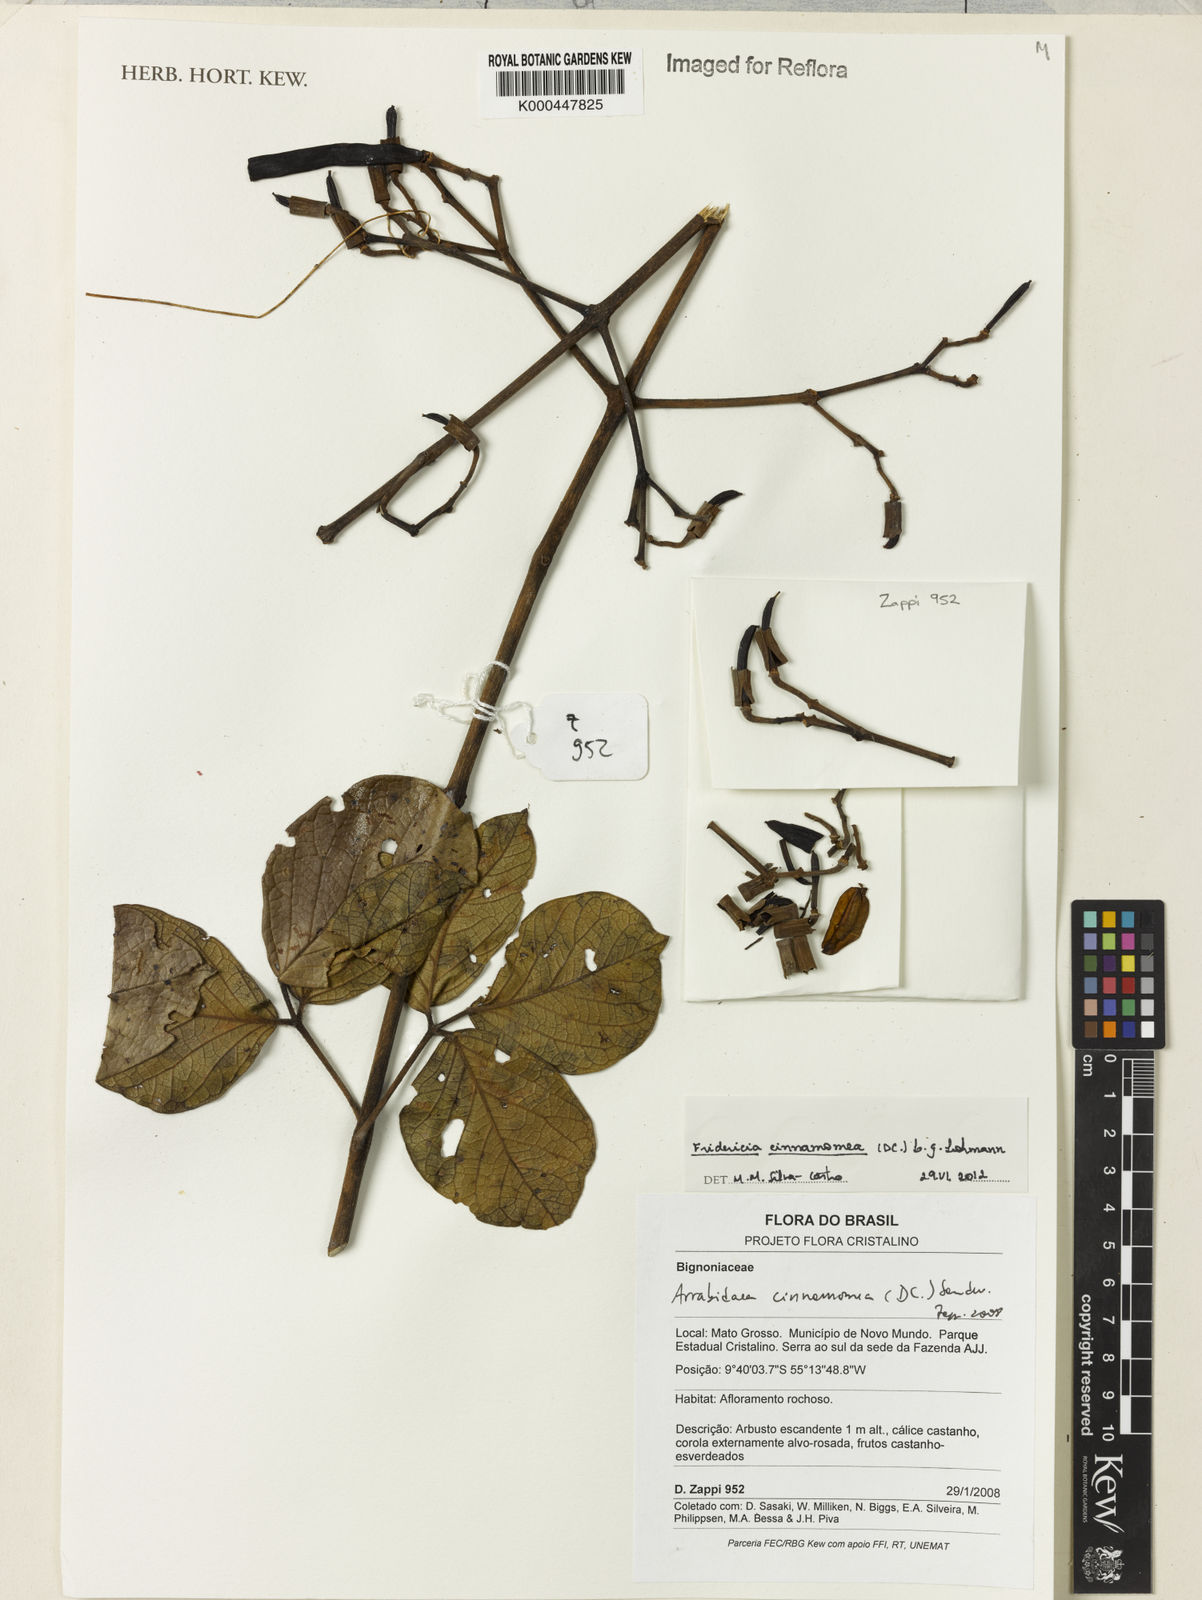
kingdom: Plantae
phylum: Tracheophyta
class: Magnoliopsida
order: Lamiales
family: Bignoniaceae
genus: Fridericia
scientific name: Fridericia cinnamomea
